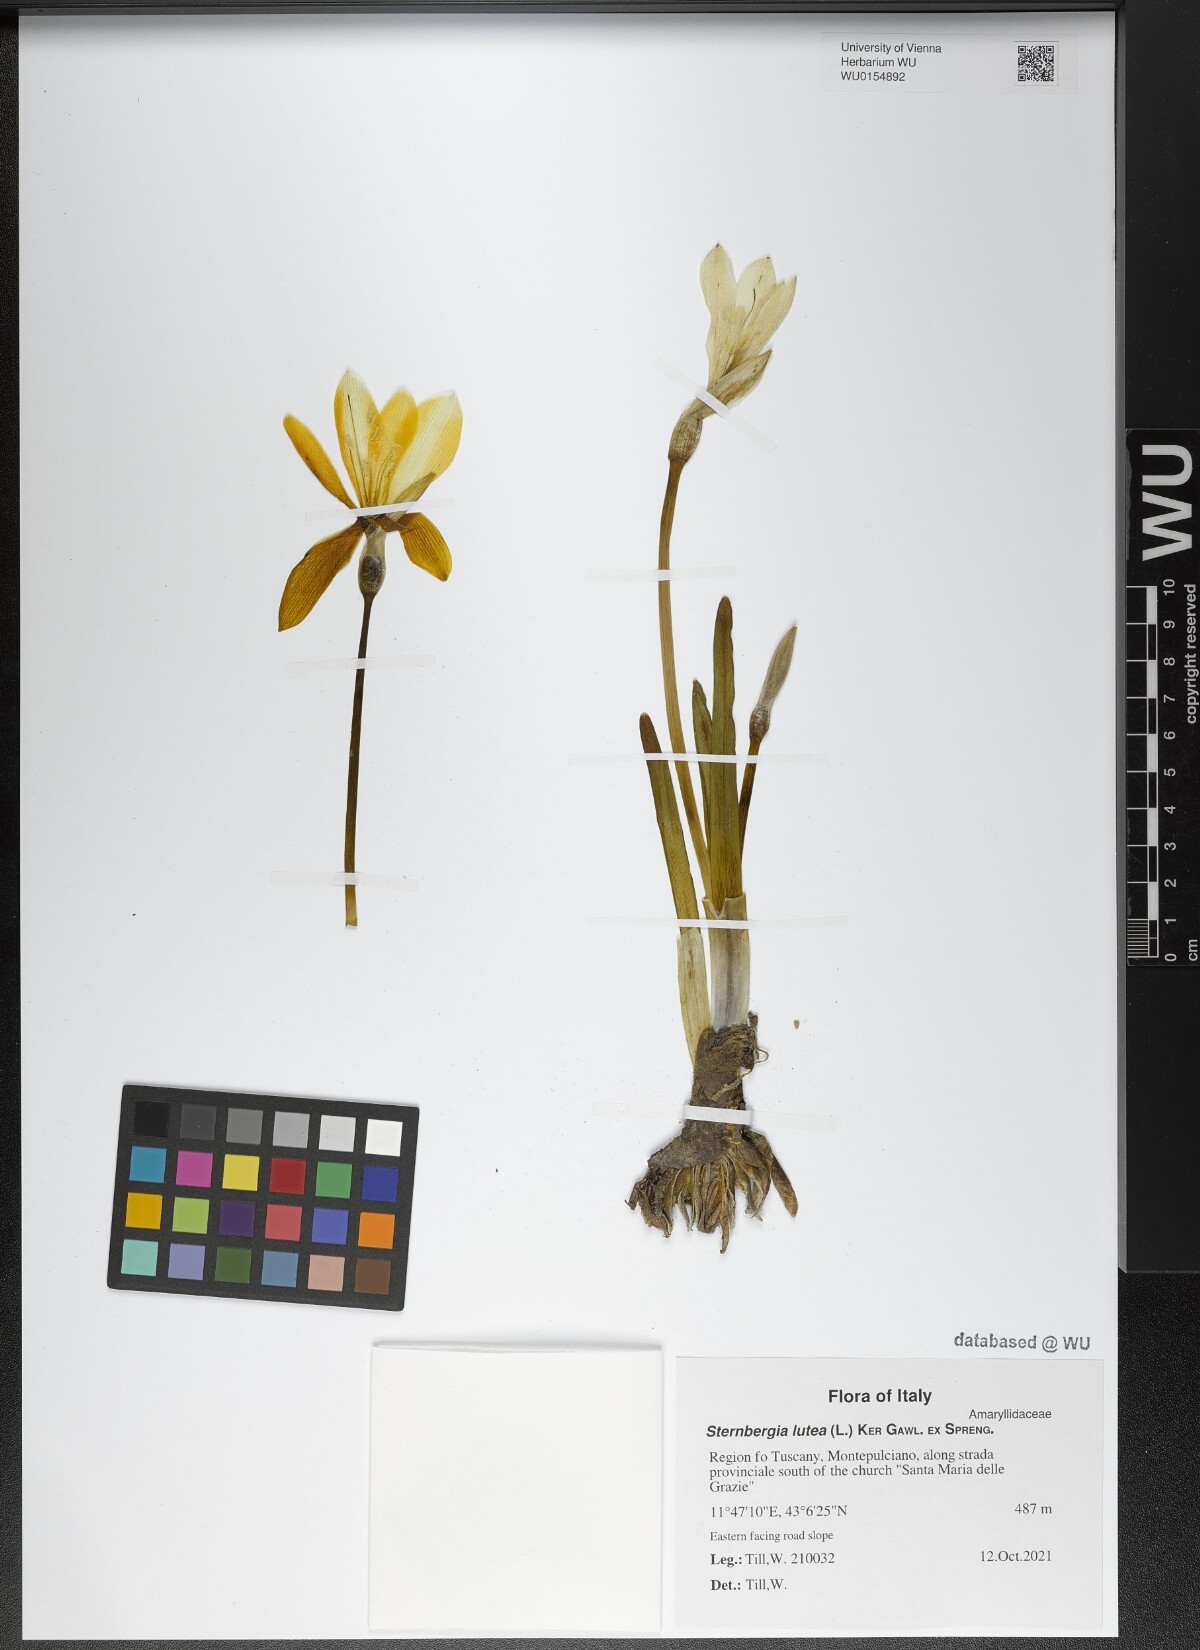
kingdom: Plantae
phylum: Tracheophyta
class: Liliopsida
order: Asparagales
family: Amaryllidaceae
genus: Sternbergia
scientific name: Sternbergia lutea
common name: Winter daffodil
